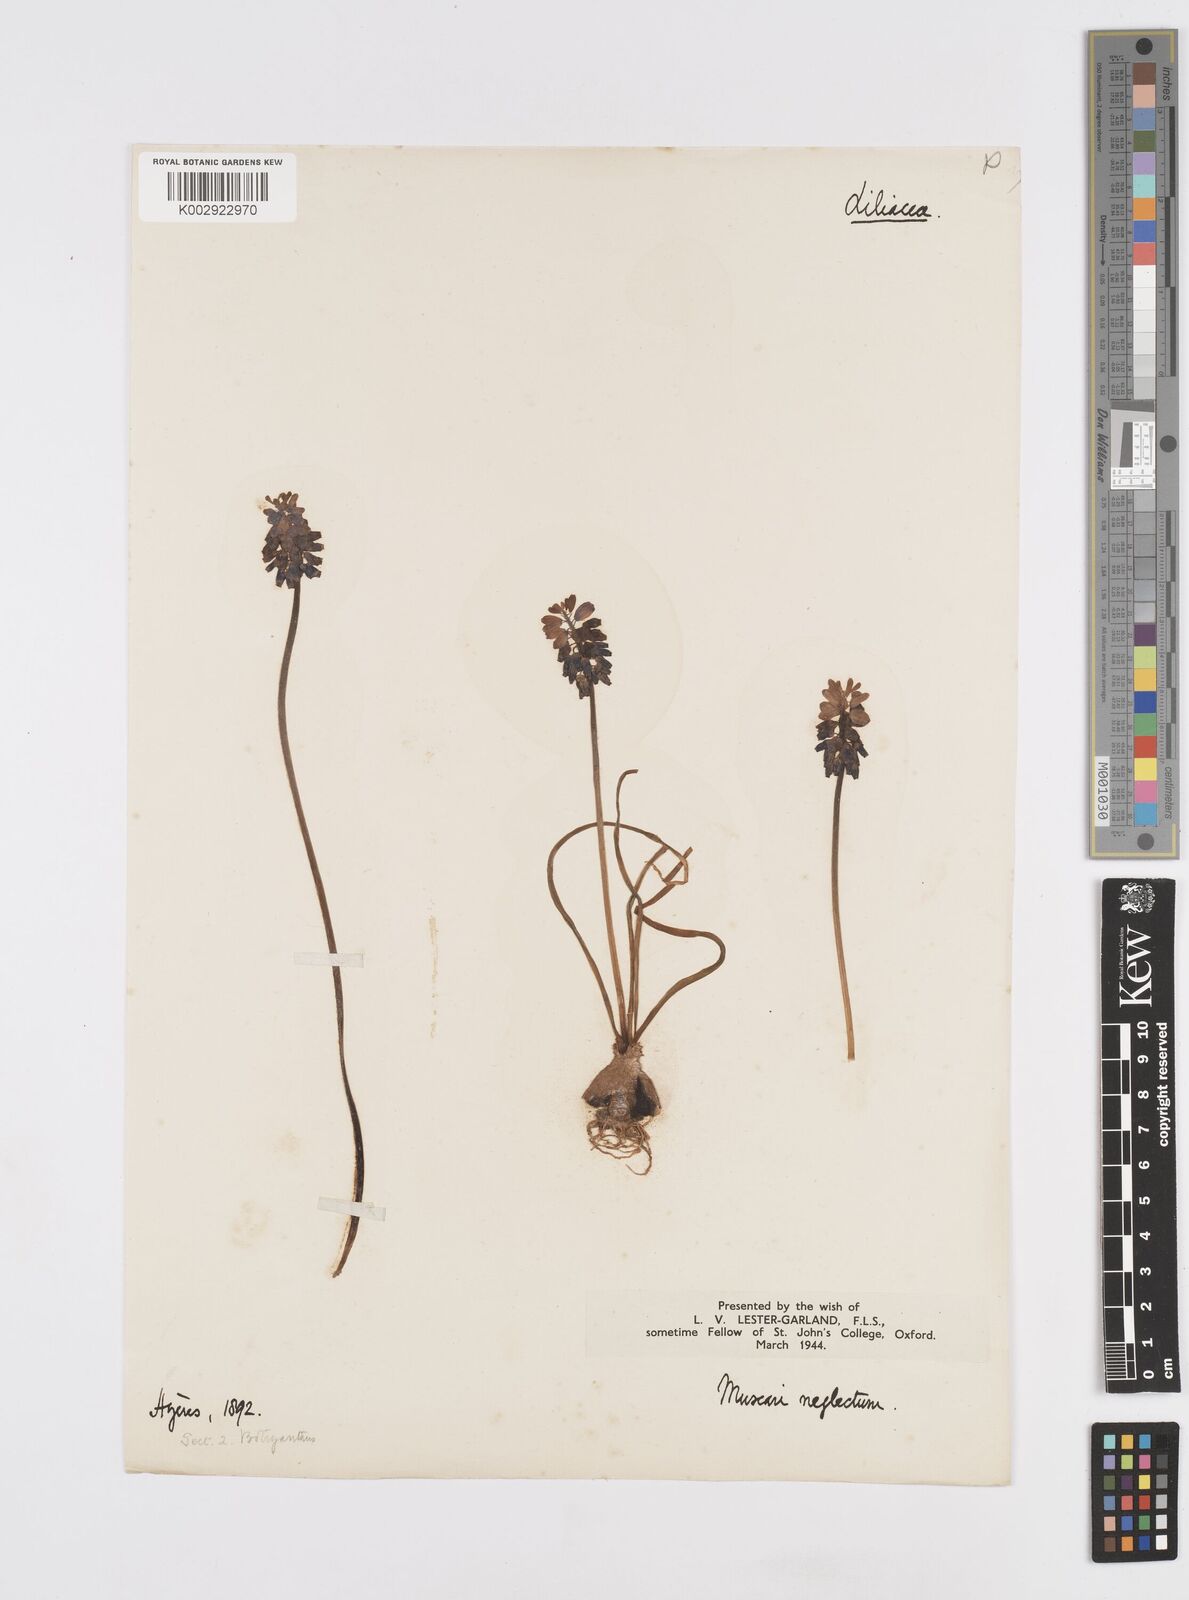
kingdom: Plantae
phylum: Tracheophyta
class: Liliopsida
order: Asparagales
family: Asparagaceae
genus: Muscari
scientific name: Muscari neglectum
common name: Grape-hyacinth
